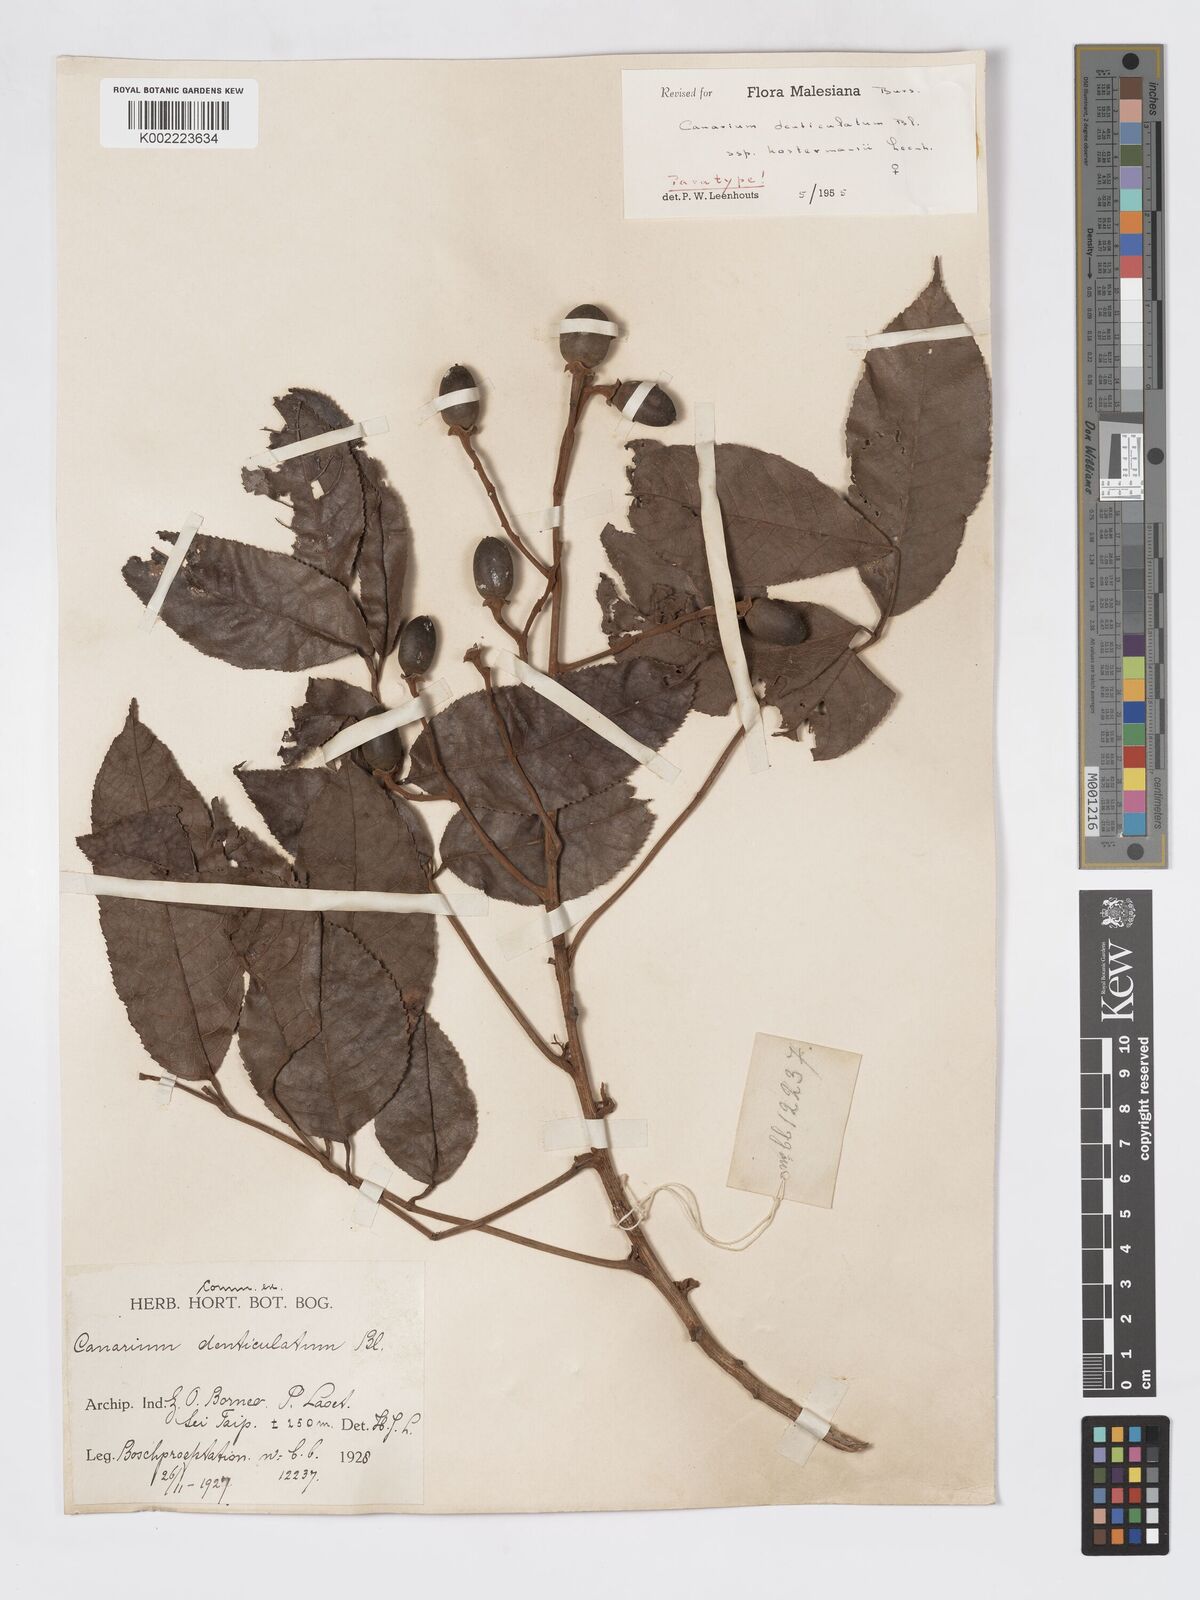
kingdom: Plantae
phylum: Tracheophyta
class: Magnoliopsida
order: Sapindales
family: Burseraceae
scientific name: Burseraceae
